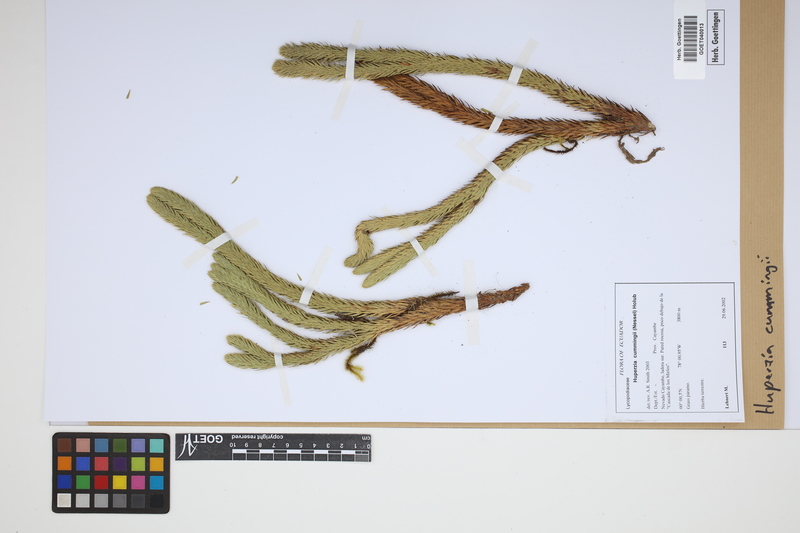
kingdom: Plantae
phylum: Tracheophyta
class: Lycopodiopsida
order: Lycopodiales
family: Lycopodiaceae
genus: Phlegmariurus
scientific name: Phlegmariurus cumingii
